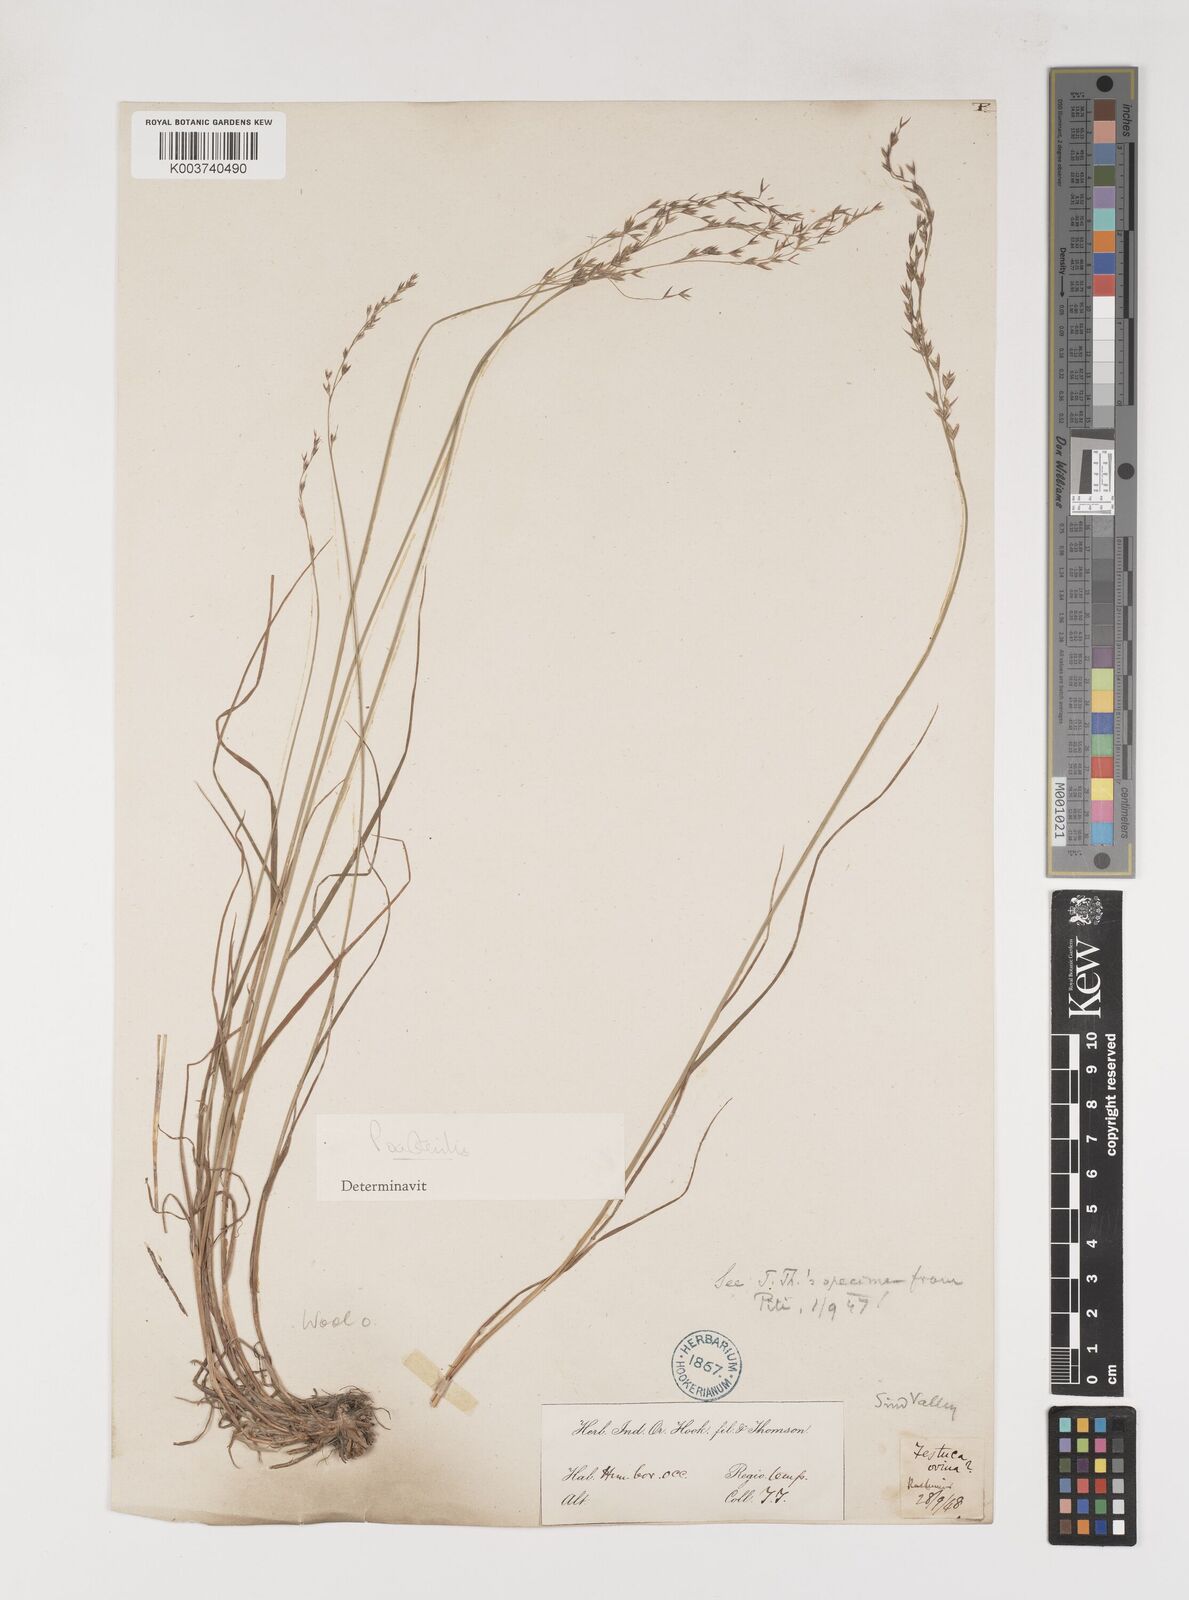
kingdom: Plantae
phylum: Tracheophyta
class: Liliopsida
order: Poales
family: Poaceae
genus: Poa
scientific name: Poa sterilis
